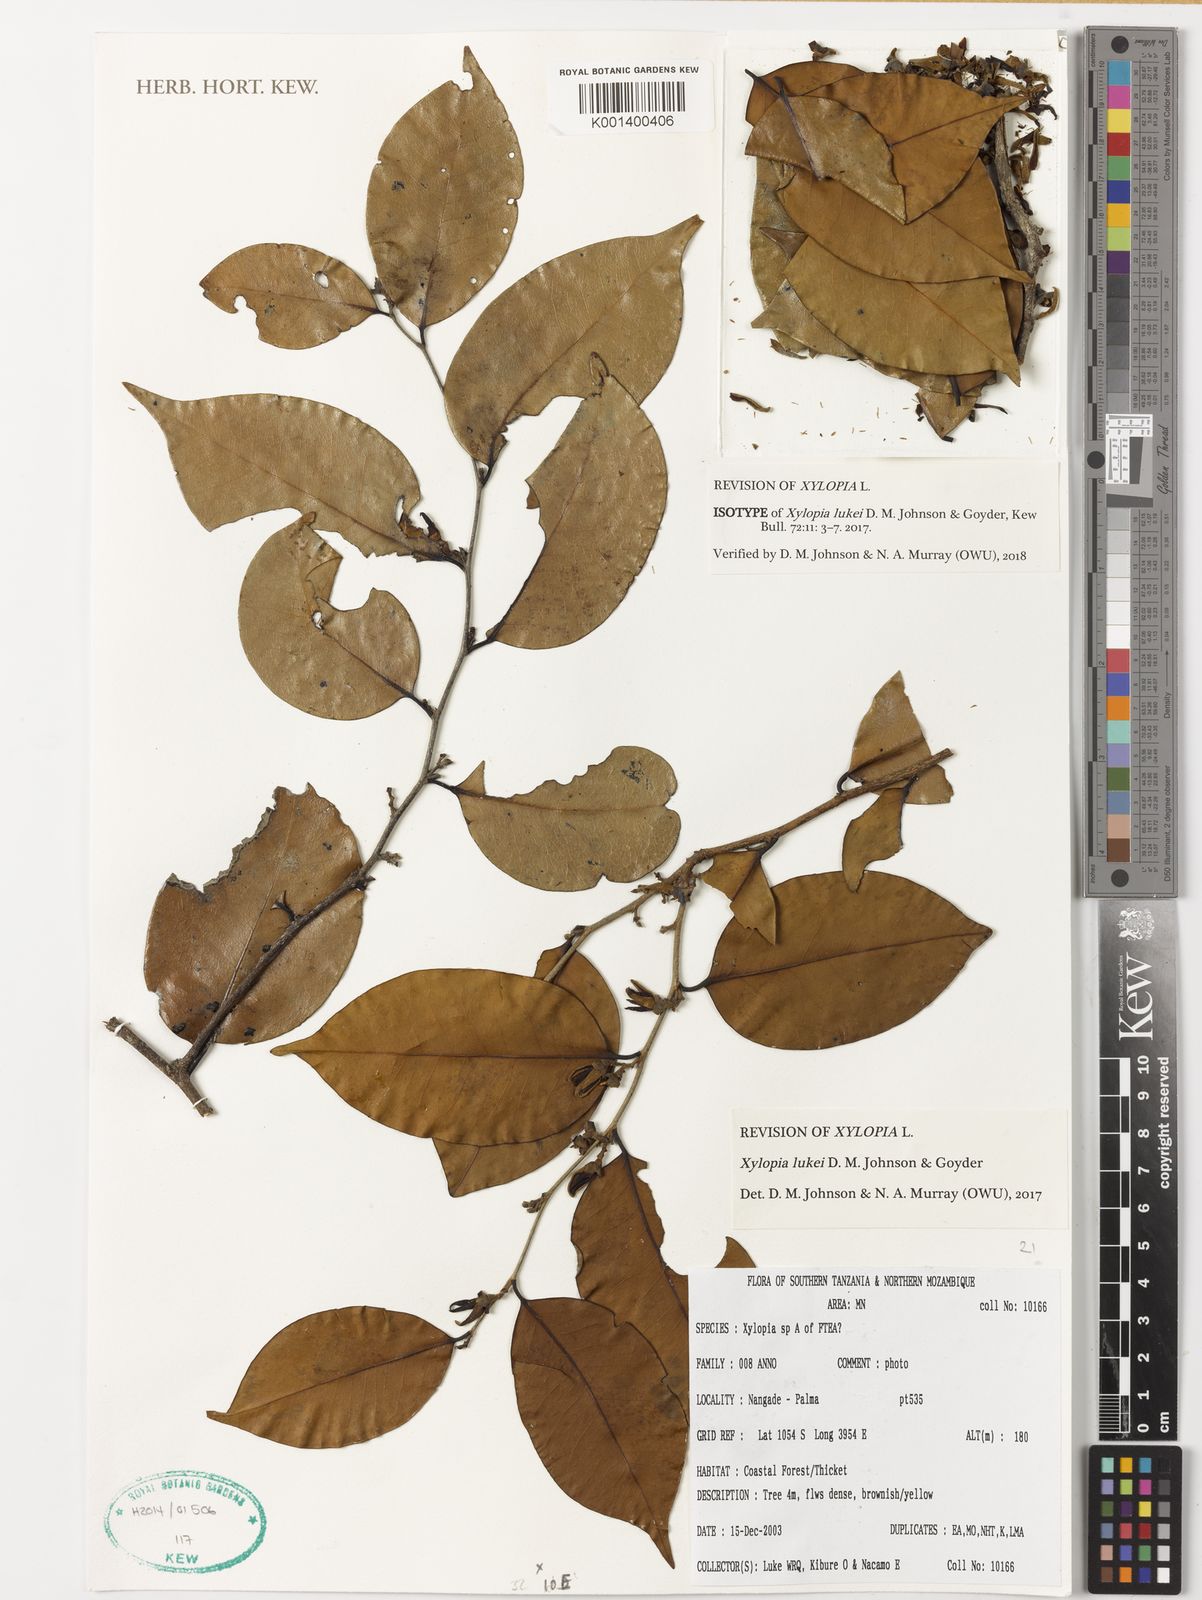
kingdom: Plantae
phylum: Tracheophyta
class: Magnoliopsida
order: Magnoliales
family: Annonaceae
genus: Xylopia
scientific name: Xylopia lukei
